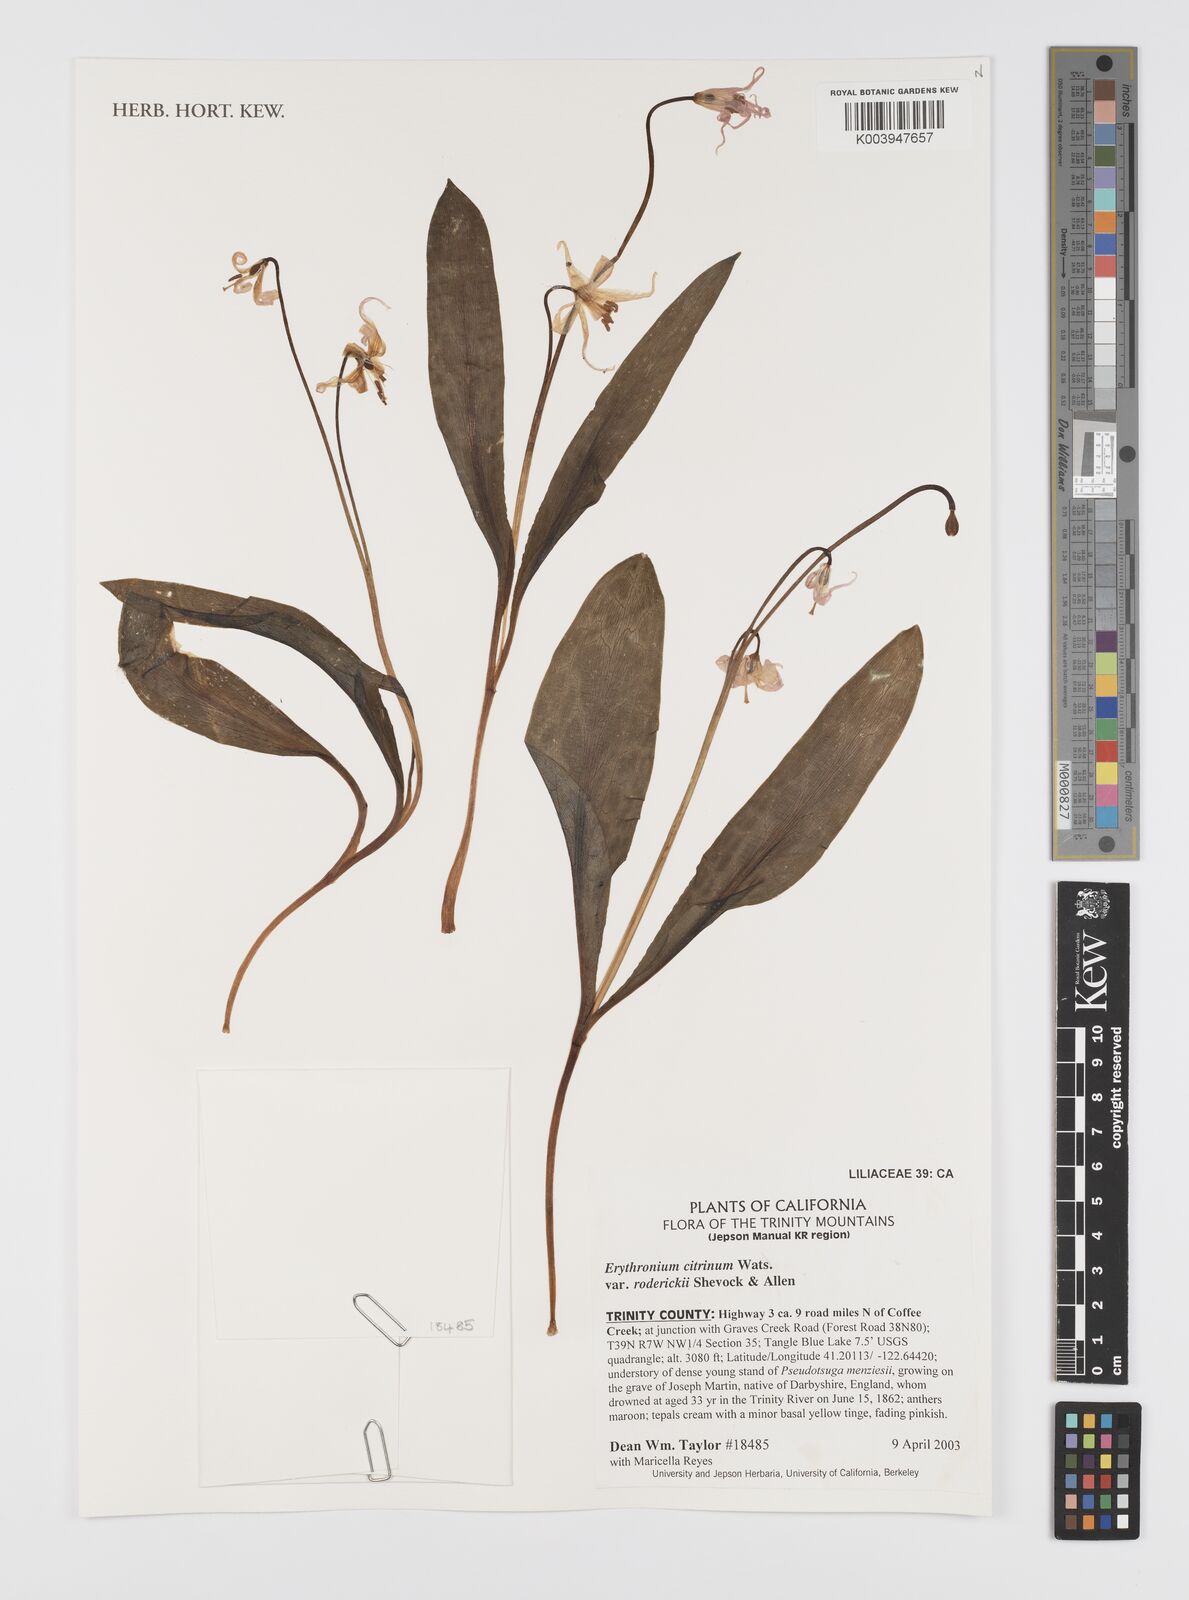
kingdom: Plantae
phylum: Tracheophyta
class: Liliopsida
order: Liliales
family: Liliaceae
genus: Erythronium
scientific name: Erythronium citrinum
